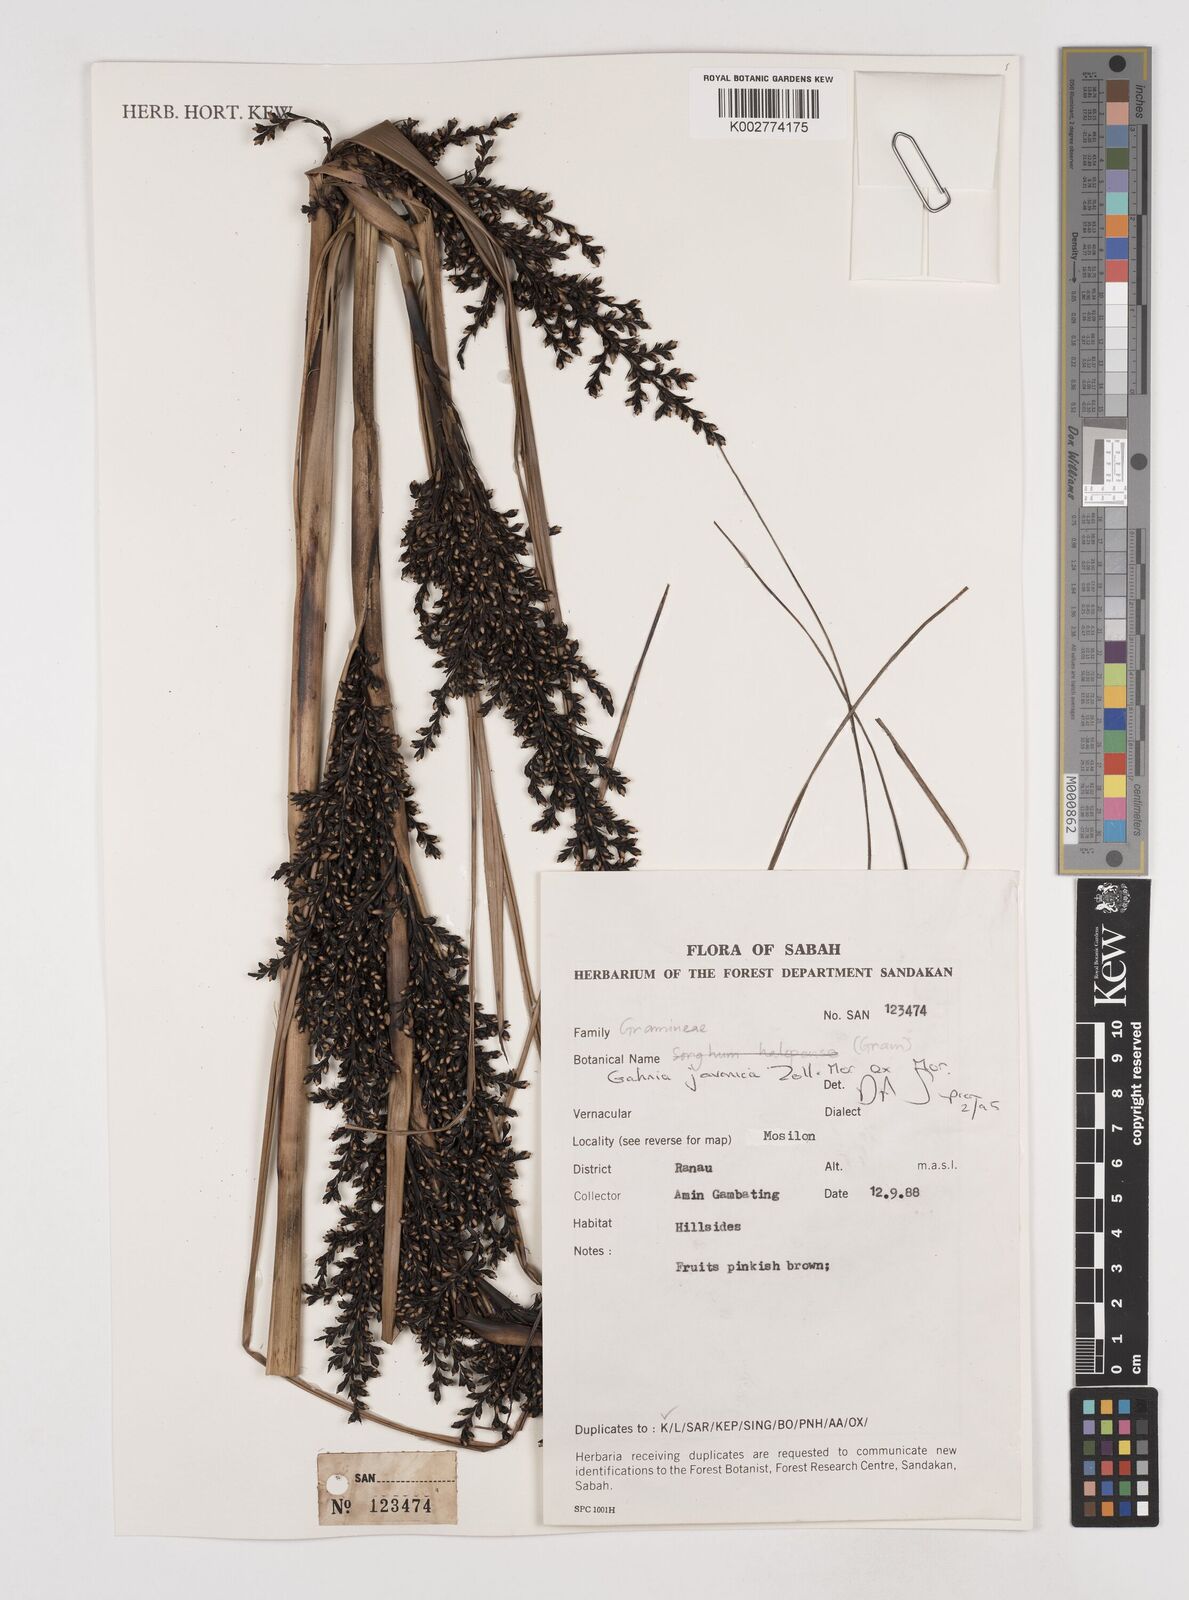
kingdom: Plantae
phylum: Tracheophyta
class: Liliopsida
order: Poales
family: Cyperaceae
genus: Gahnia
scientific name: Gahnia javanica
